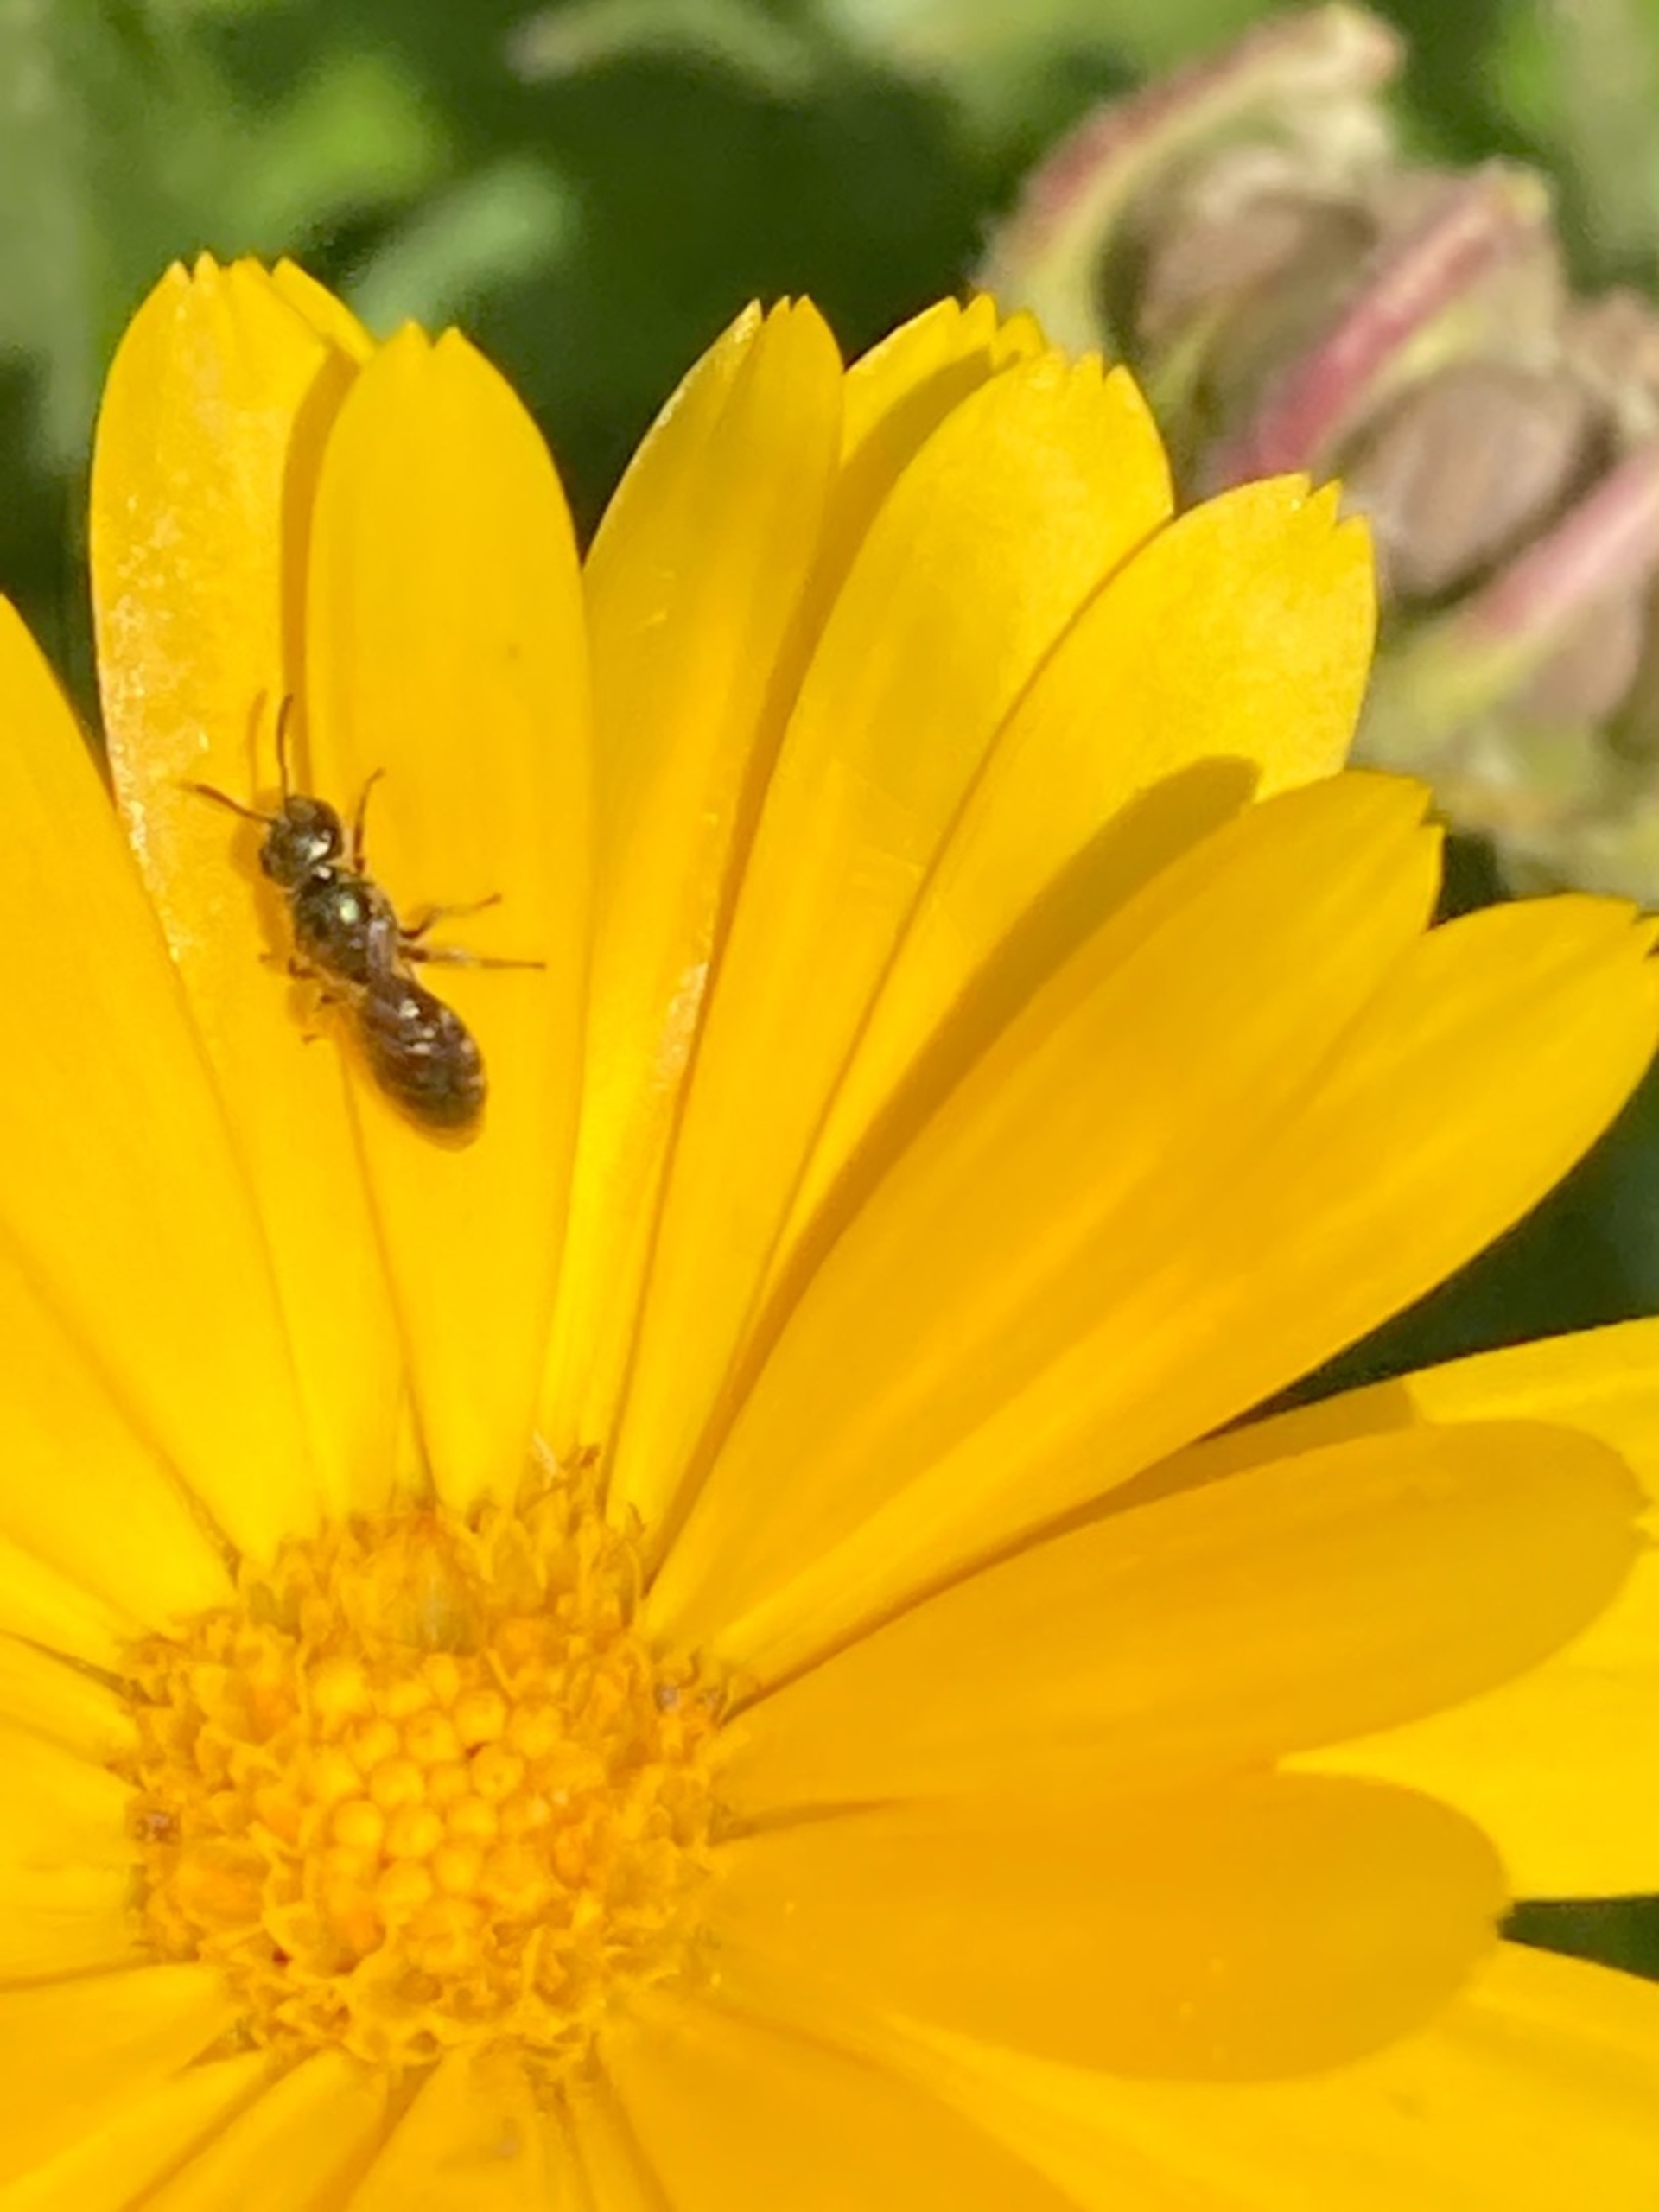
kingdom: Animalia
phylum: Arthropoda
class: Insecta
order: Hymenoptera
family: Halictidae
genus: Lasioglossum
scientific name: Lasioglossum
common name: Smalbier
